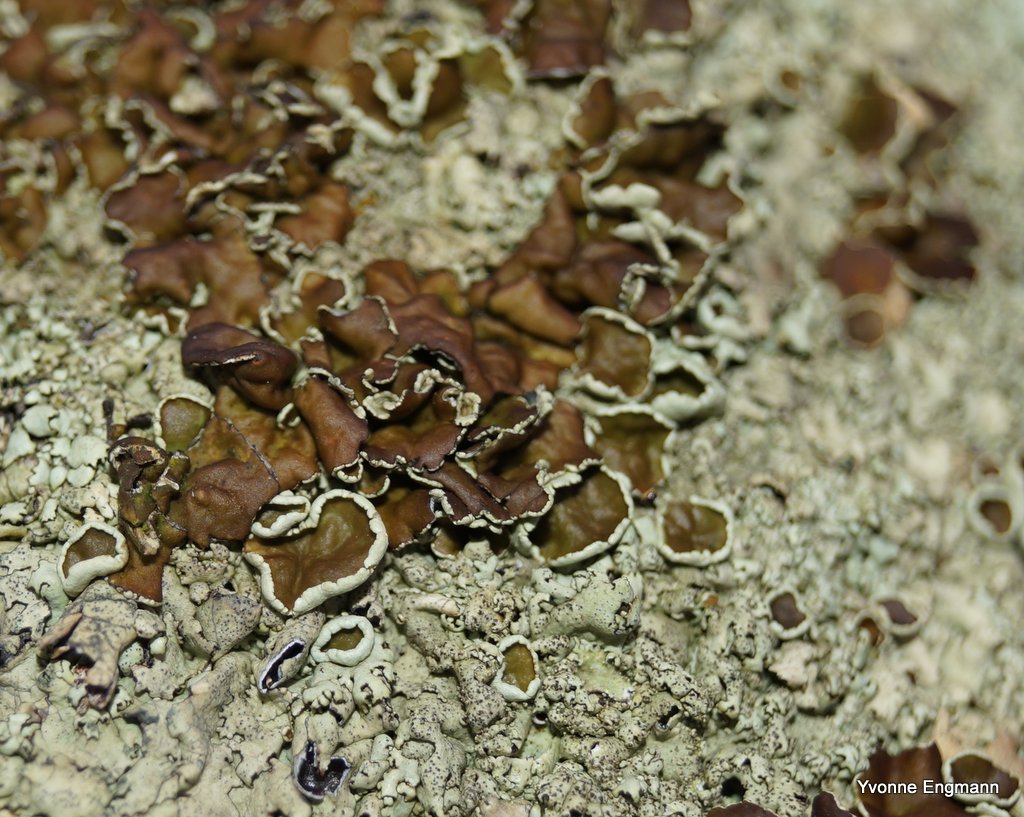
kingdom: Fungi
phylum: Ascomycota
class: Lecanoromycetes
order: Lecanorales
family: Parmeliaceae
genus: Xanthoparmelia
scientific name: Xanthoparmelia conspersa
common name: messing-skållav
